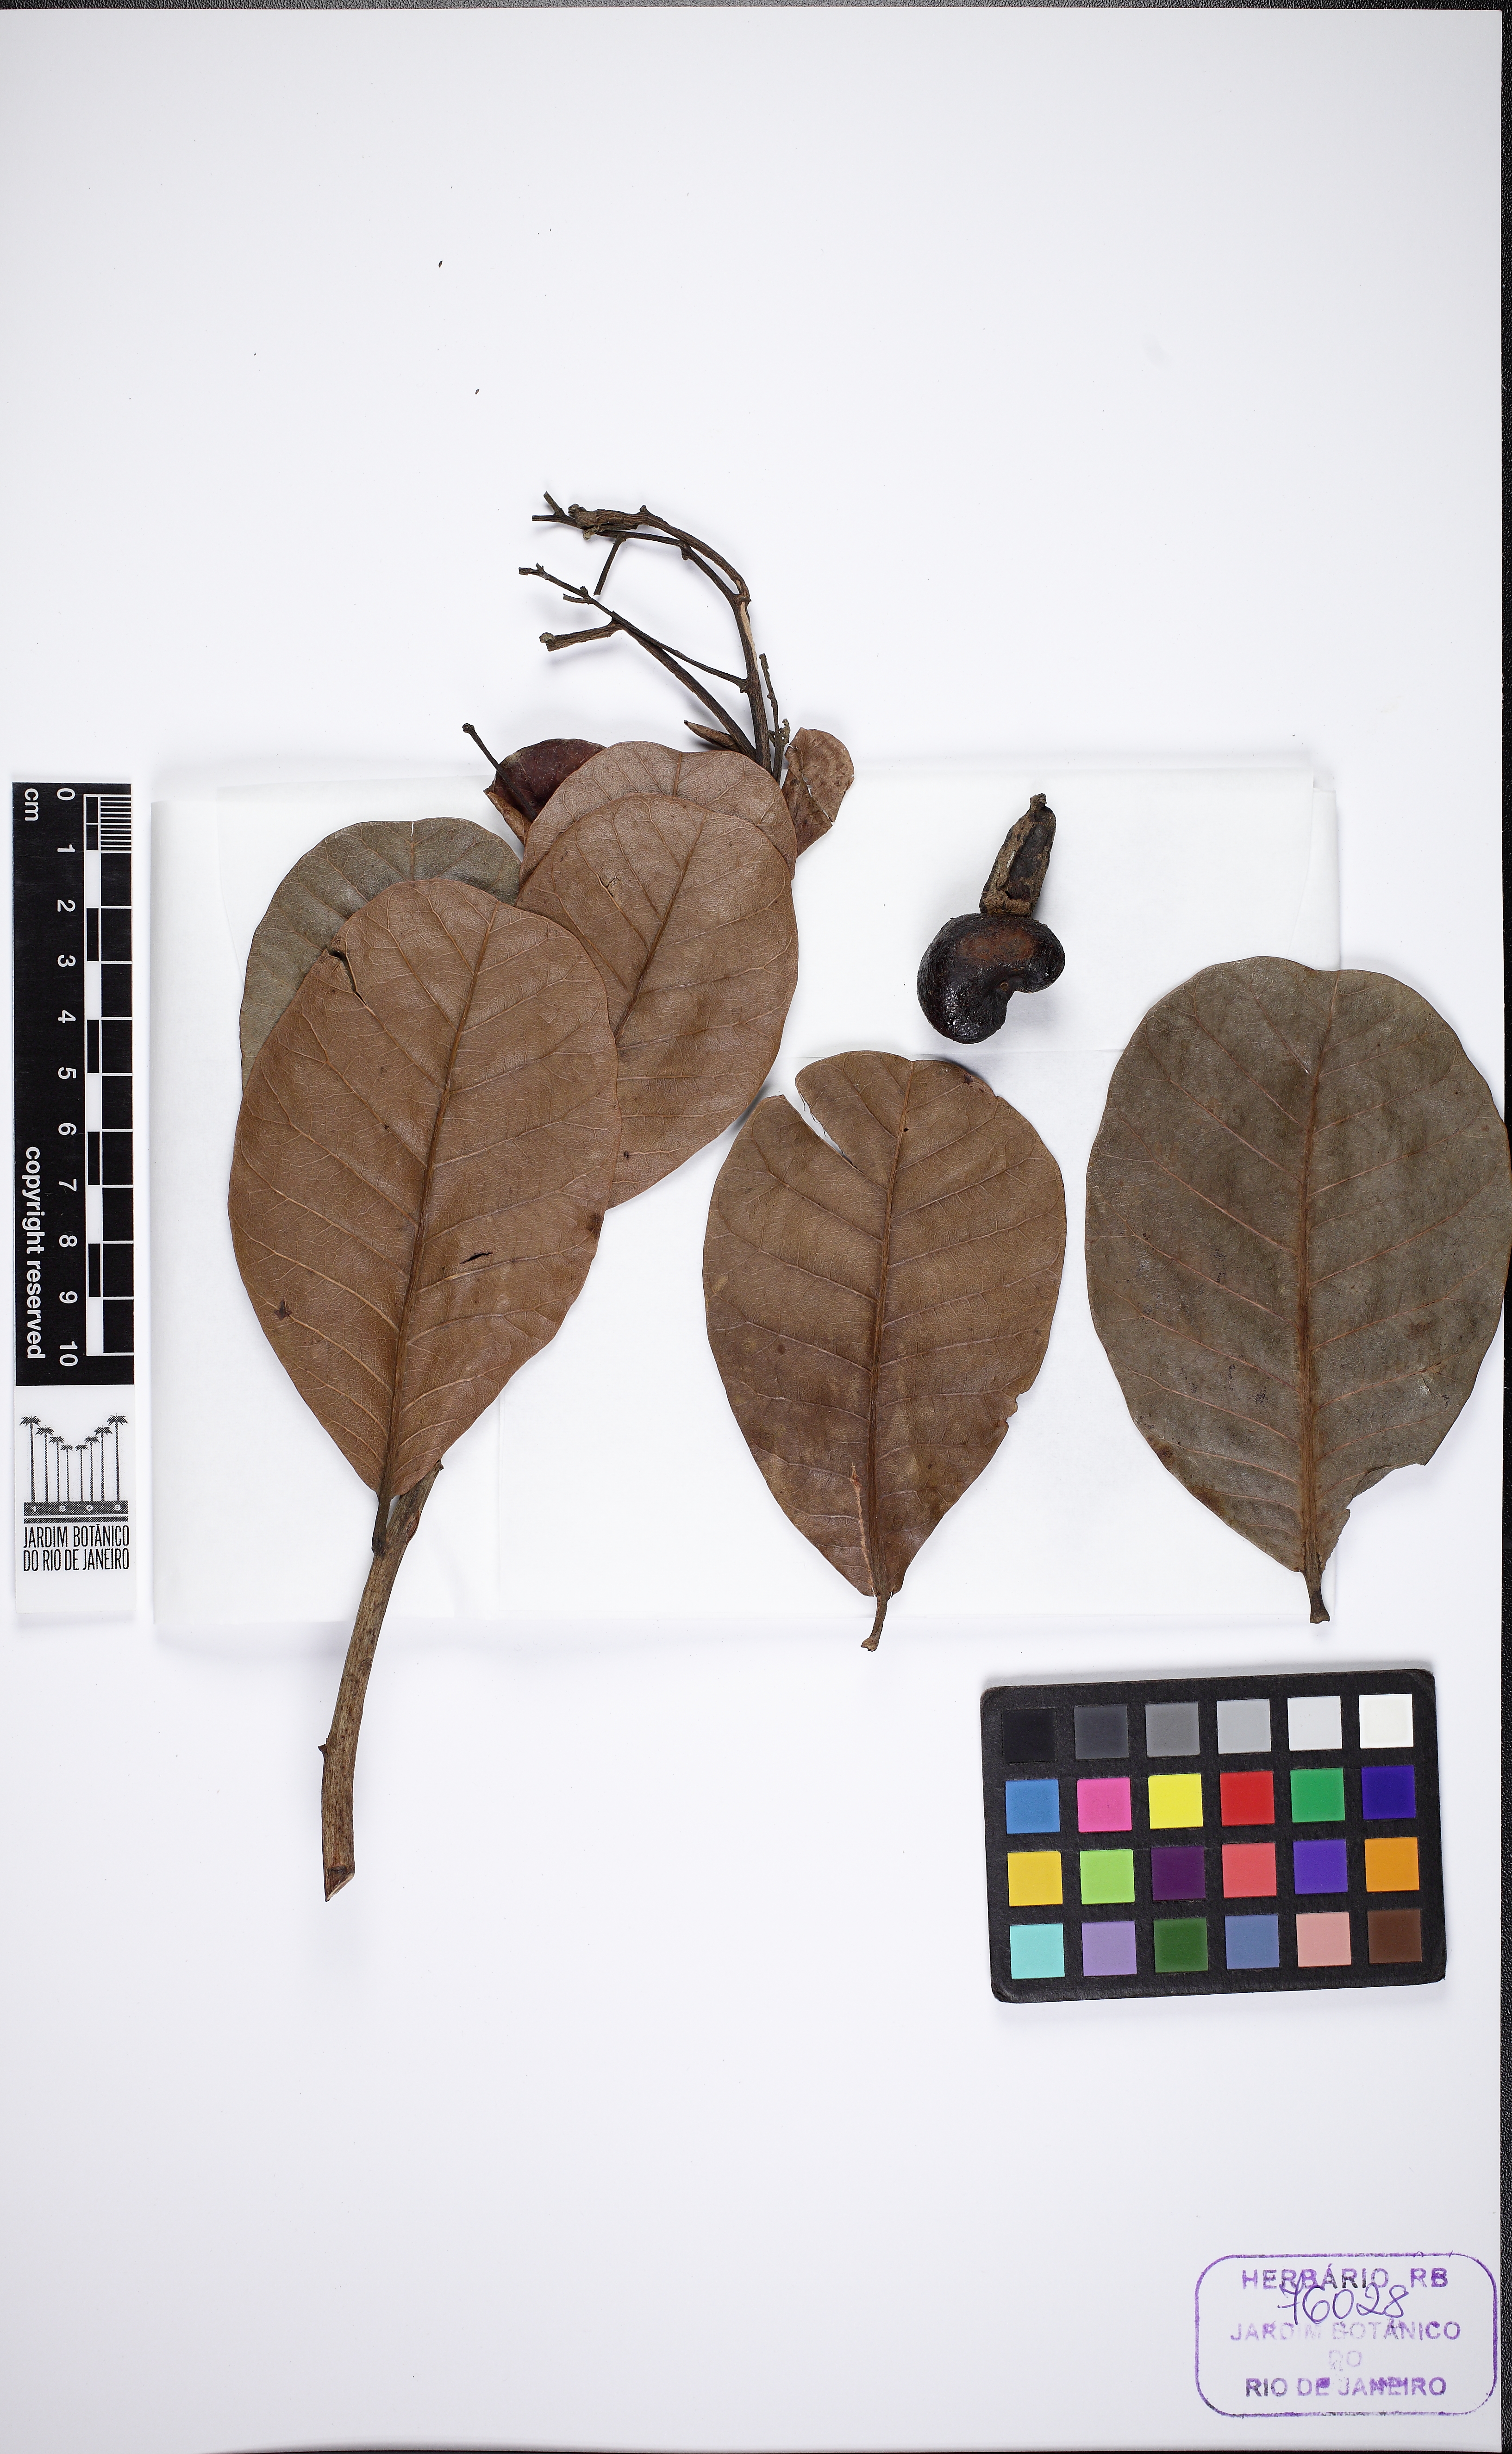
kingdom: Plantae
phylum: Tracheophyta
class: Magnoliopsida
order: Sapindales
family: Anacardiaceae
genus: Anacardium
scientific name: Anacardium occidentale
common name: Cashew
